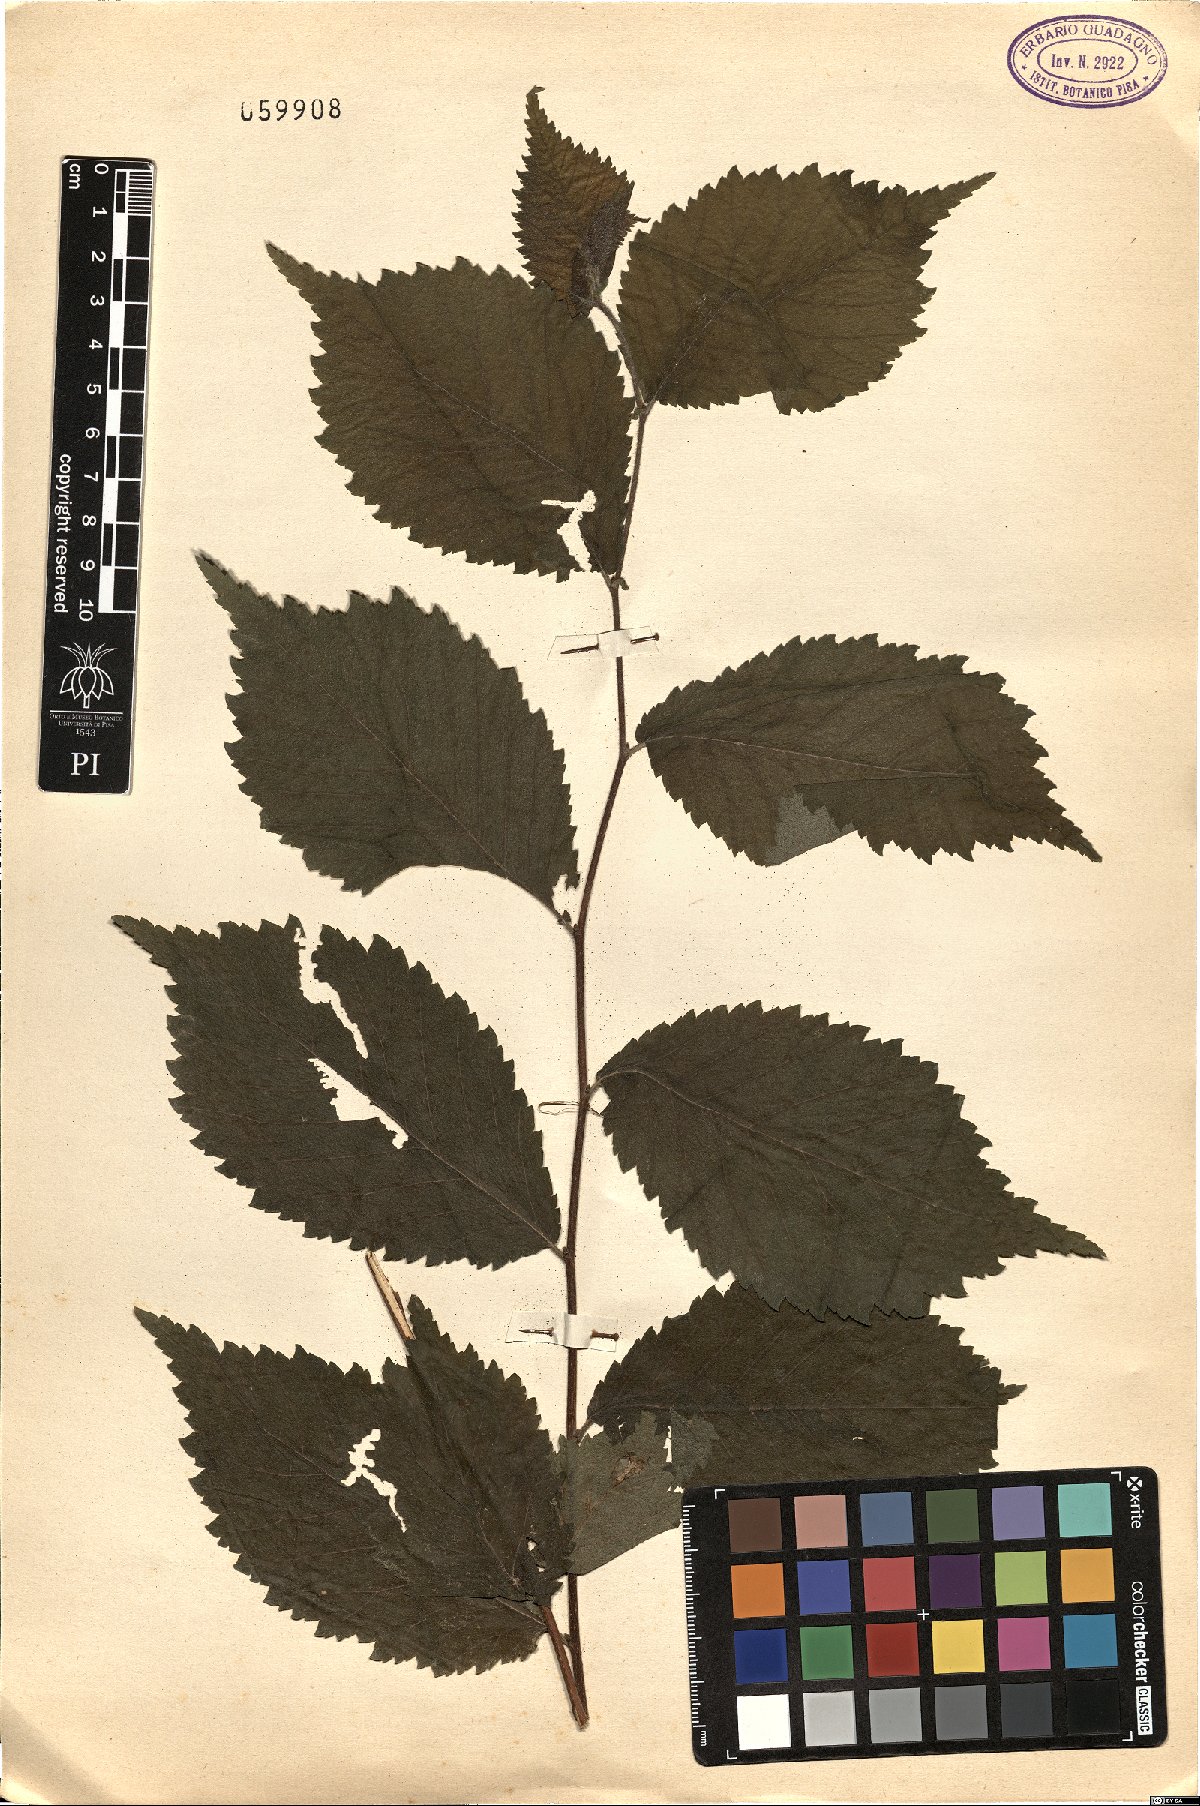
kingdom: Plantae
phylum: Tracheophyta
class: Magnoliopsida
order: Rosales
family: Ulmaceae
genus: Ulmus
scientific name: Ulmus glabra
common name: Wych elm
